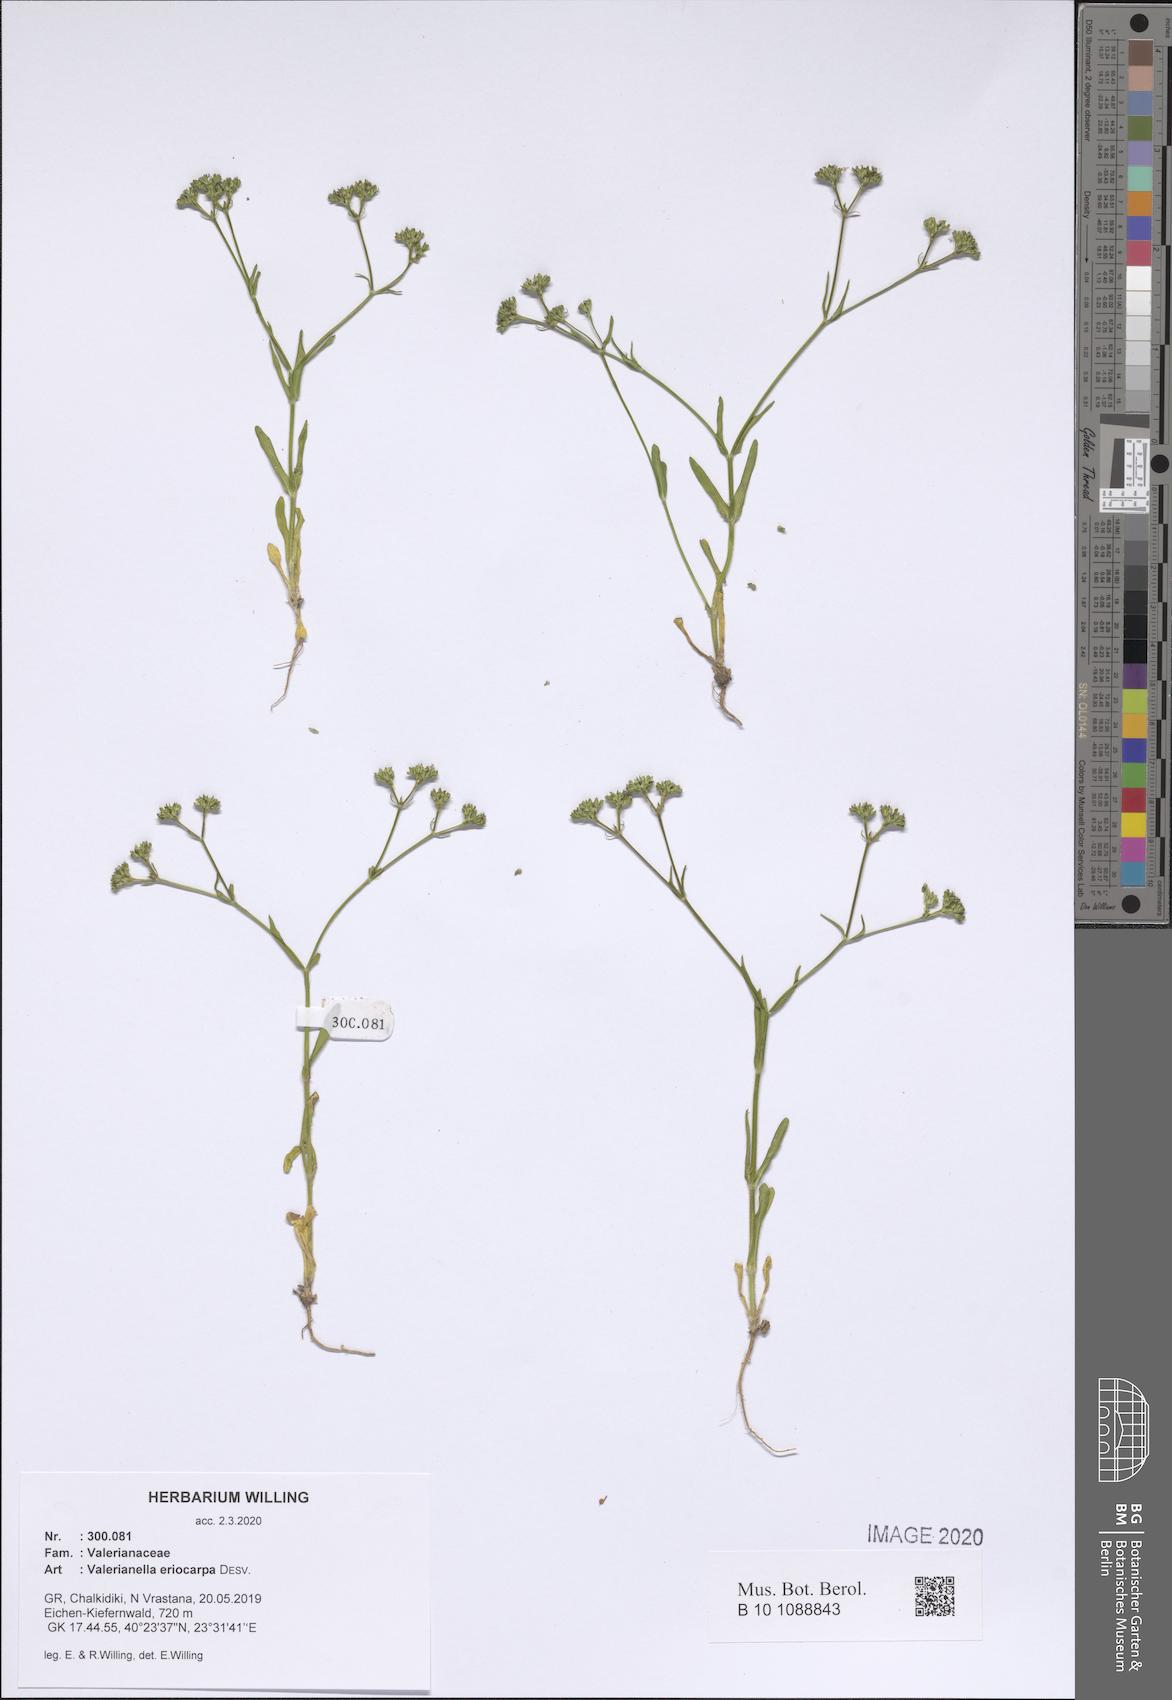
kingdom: Plantae
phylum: Tracheophyta
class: Magnoliopsida
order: Dipsacales
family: Caprifoliaceae
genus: Valerianella
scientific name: Valerianella eriocarpa
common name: Hairy-fruited cornsalad
